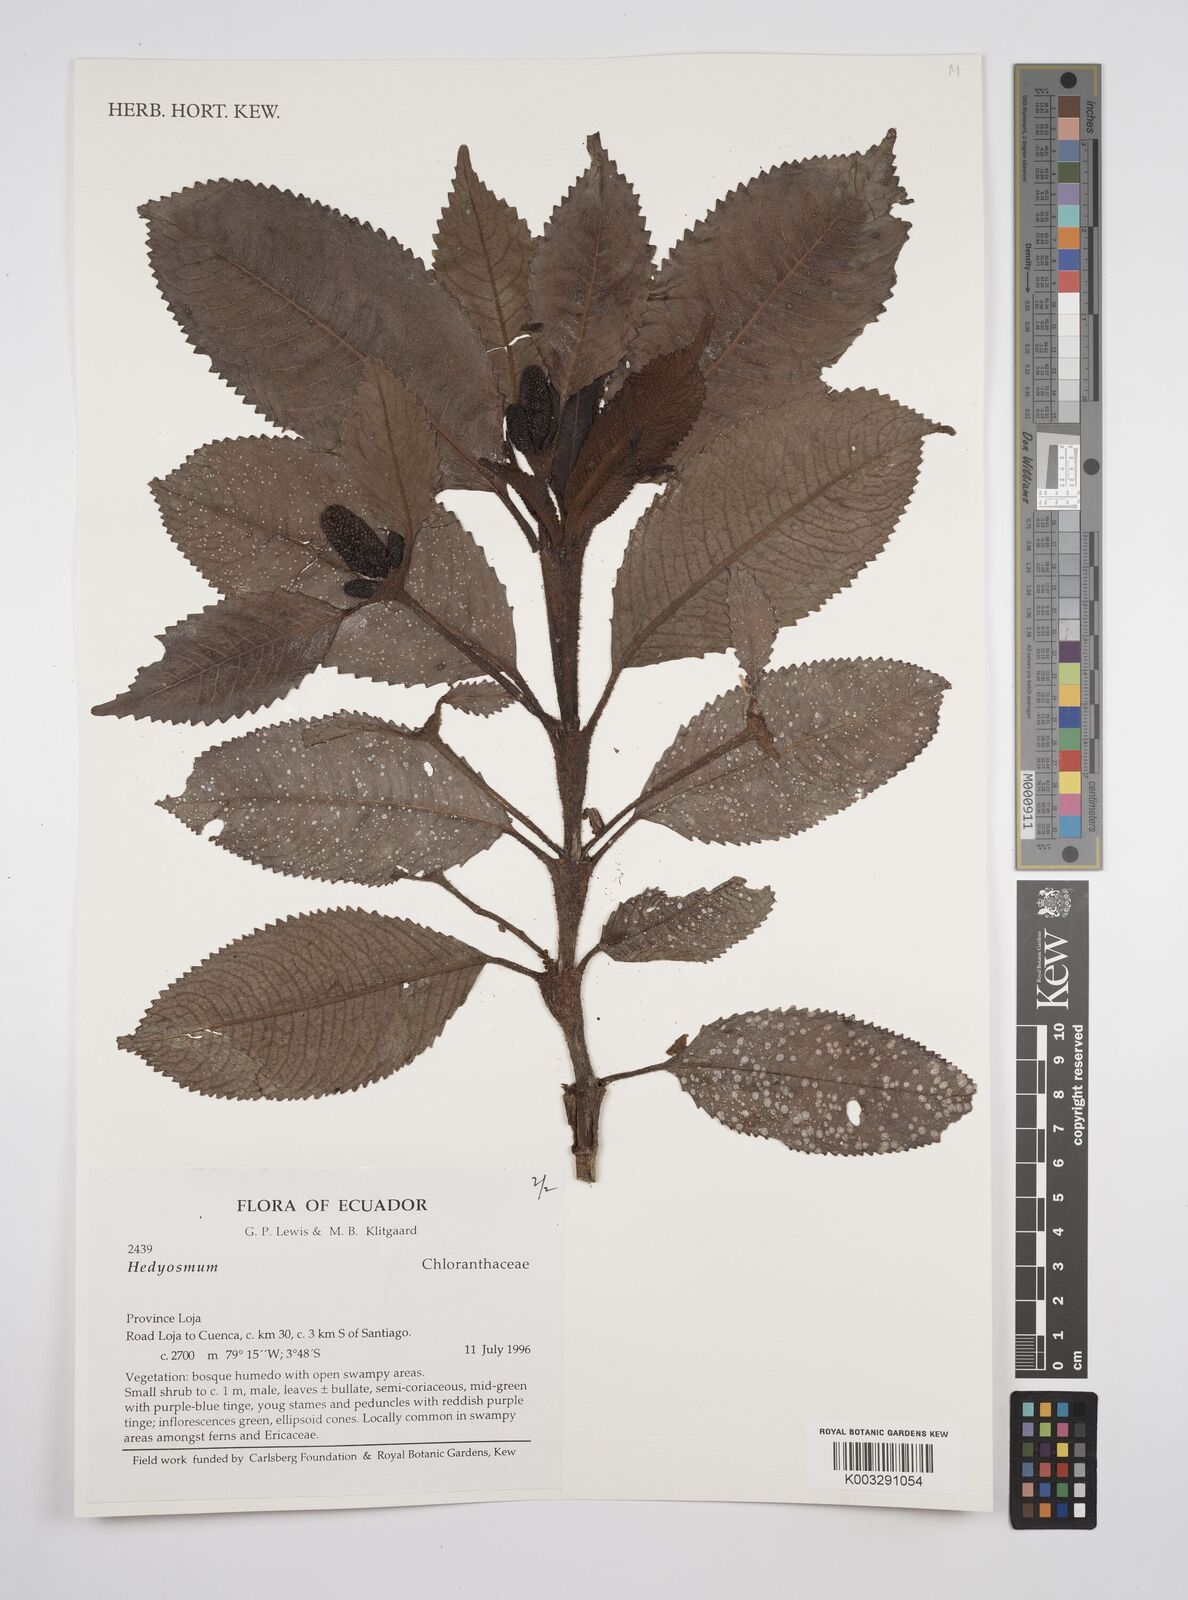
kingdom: Plantae
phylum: Tracheophyta
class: Magnoliopsida
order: Chloranthales
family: Chloranthaceae
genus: Hedyosmum
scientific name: Hedyosmum
